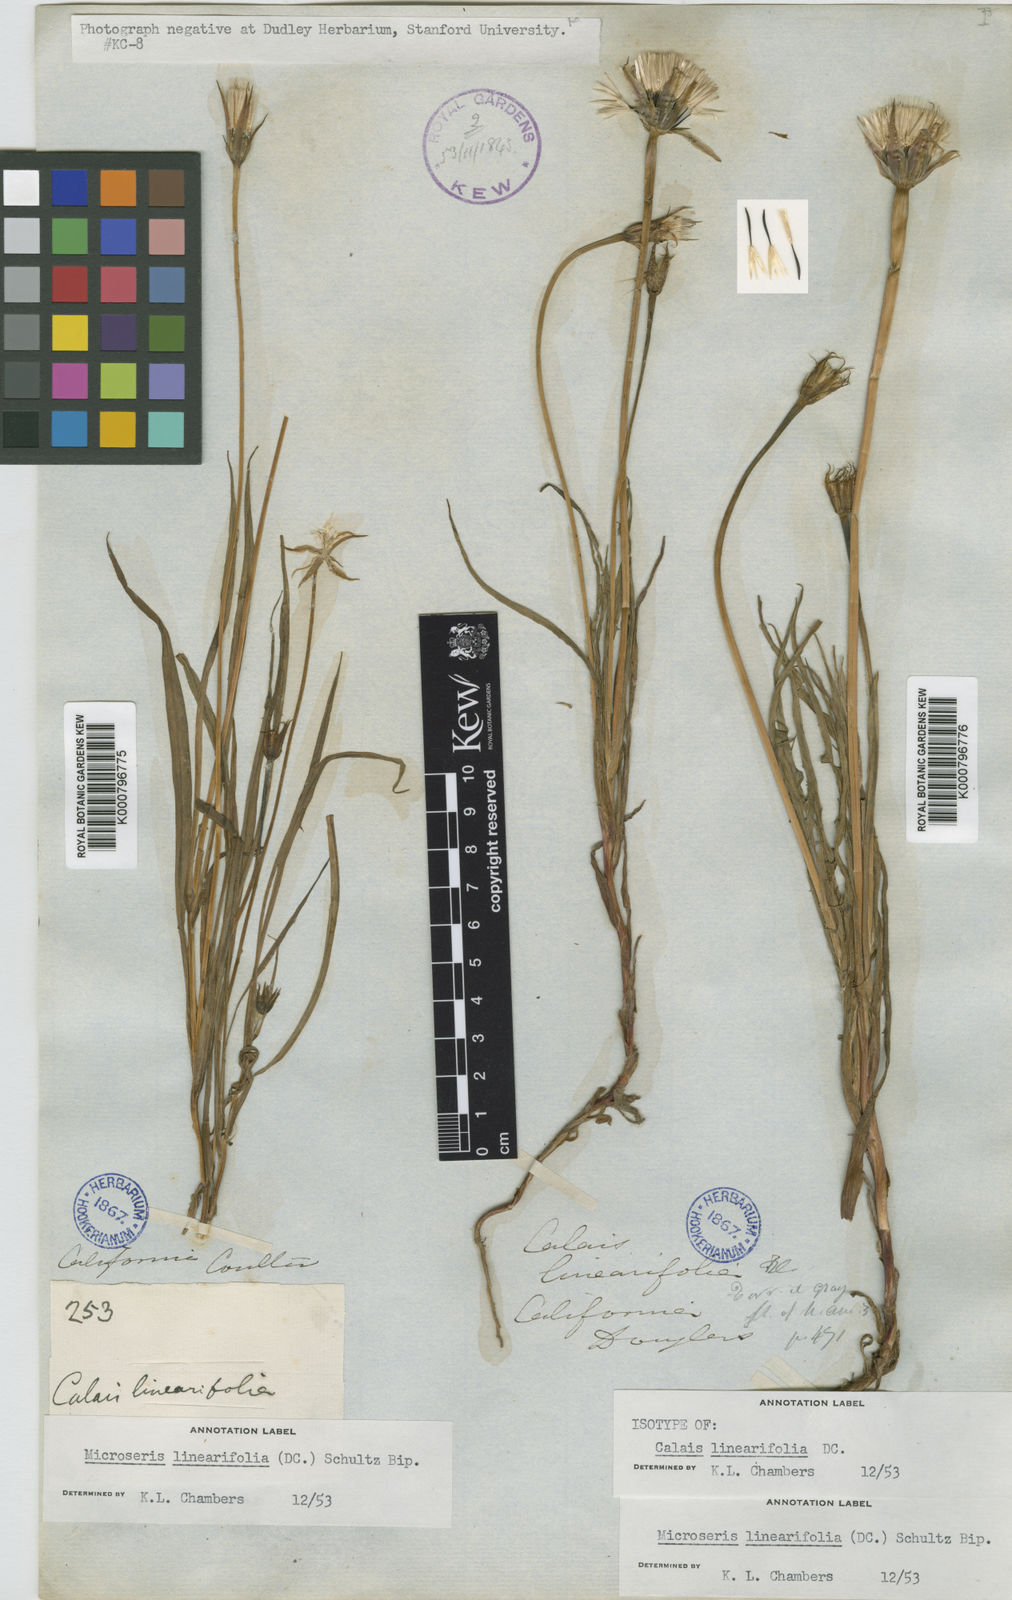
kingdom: Plantae
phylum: Tracheophyta
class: Magnoliopsida
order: Asterales
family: Asteraceae
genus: Microseris
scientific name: Microseris lindleyi
